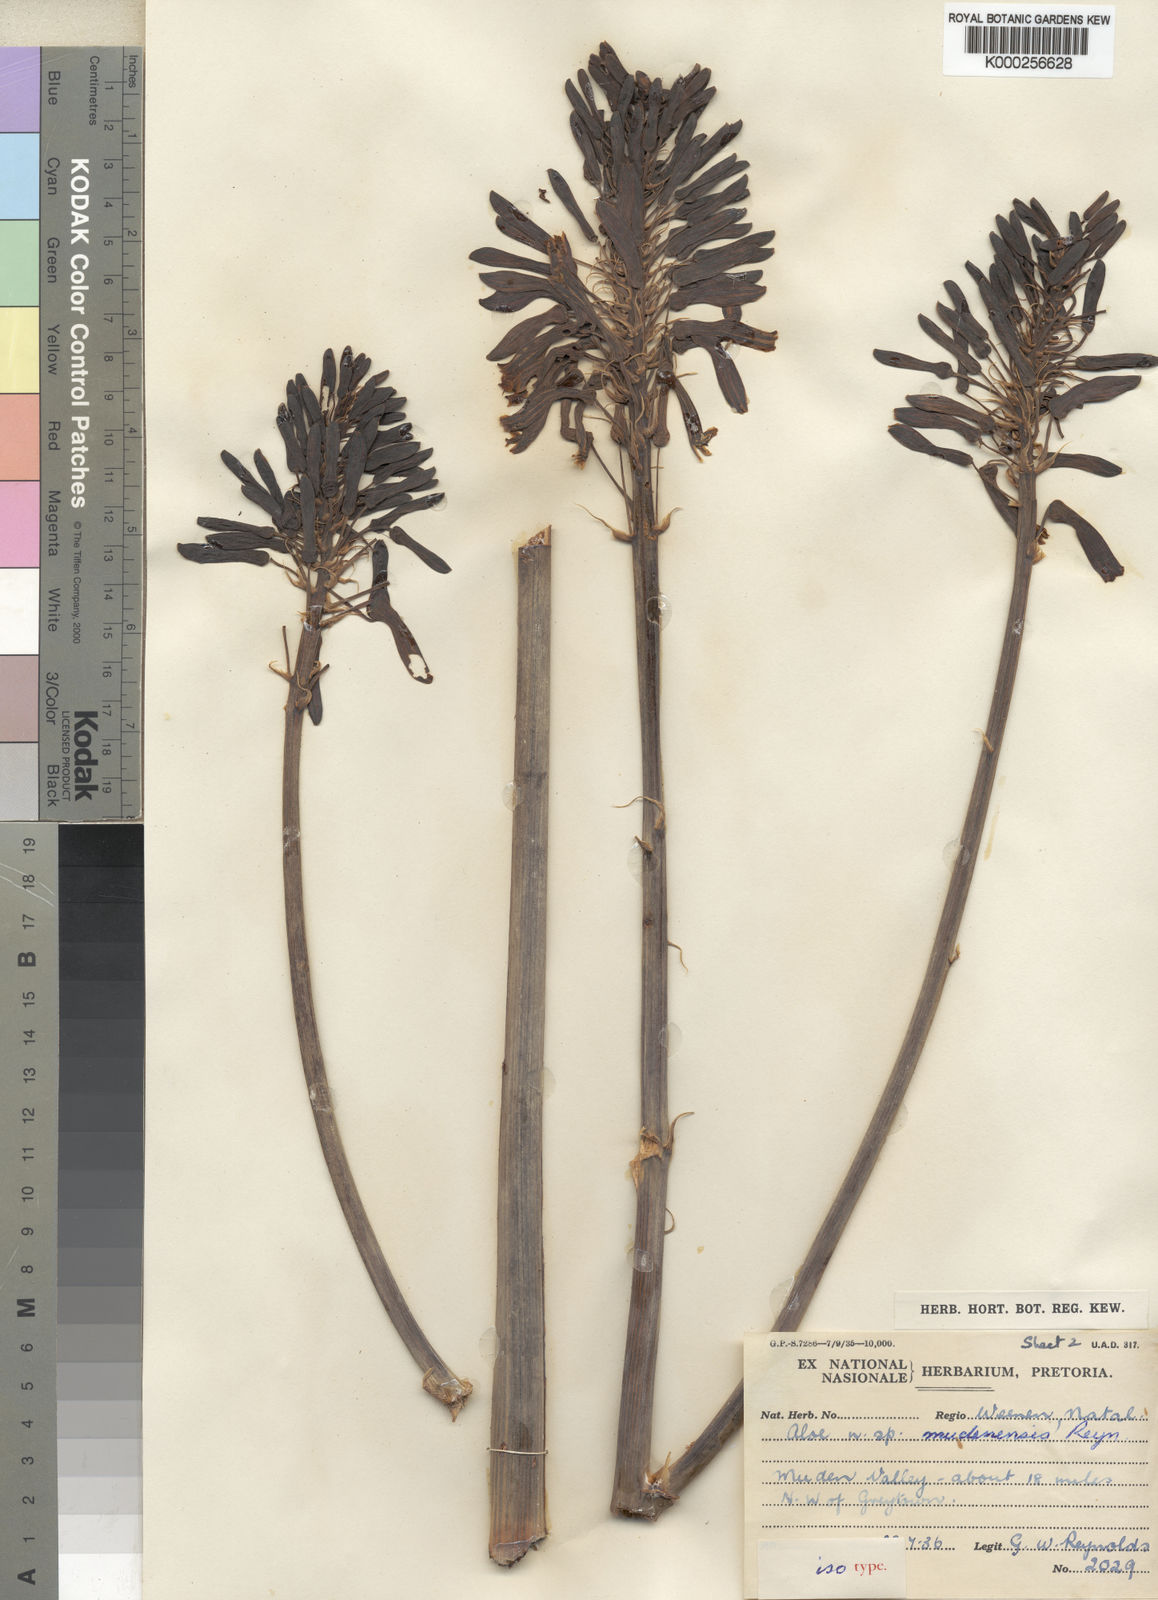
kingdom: Plantae
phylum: Tracheophyta
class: Liliopsida
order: Asparagales
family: Asphodelaceae
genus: Aloe
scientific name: Aloe mudenensis
